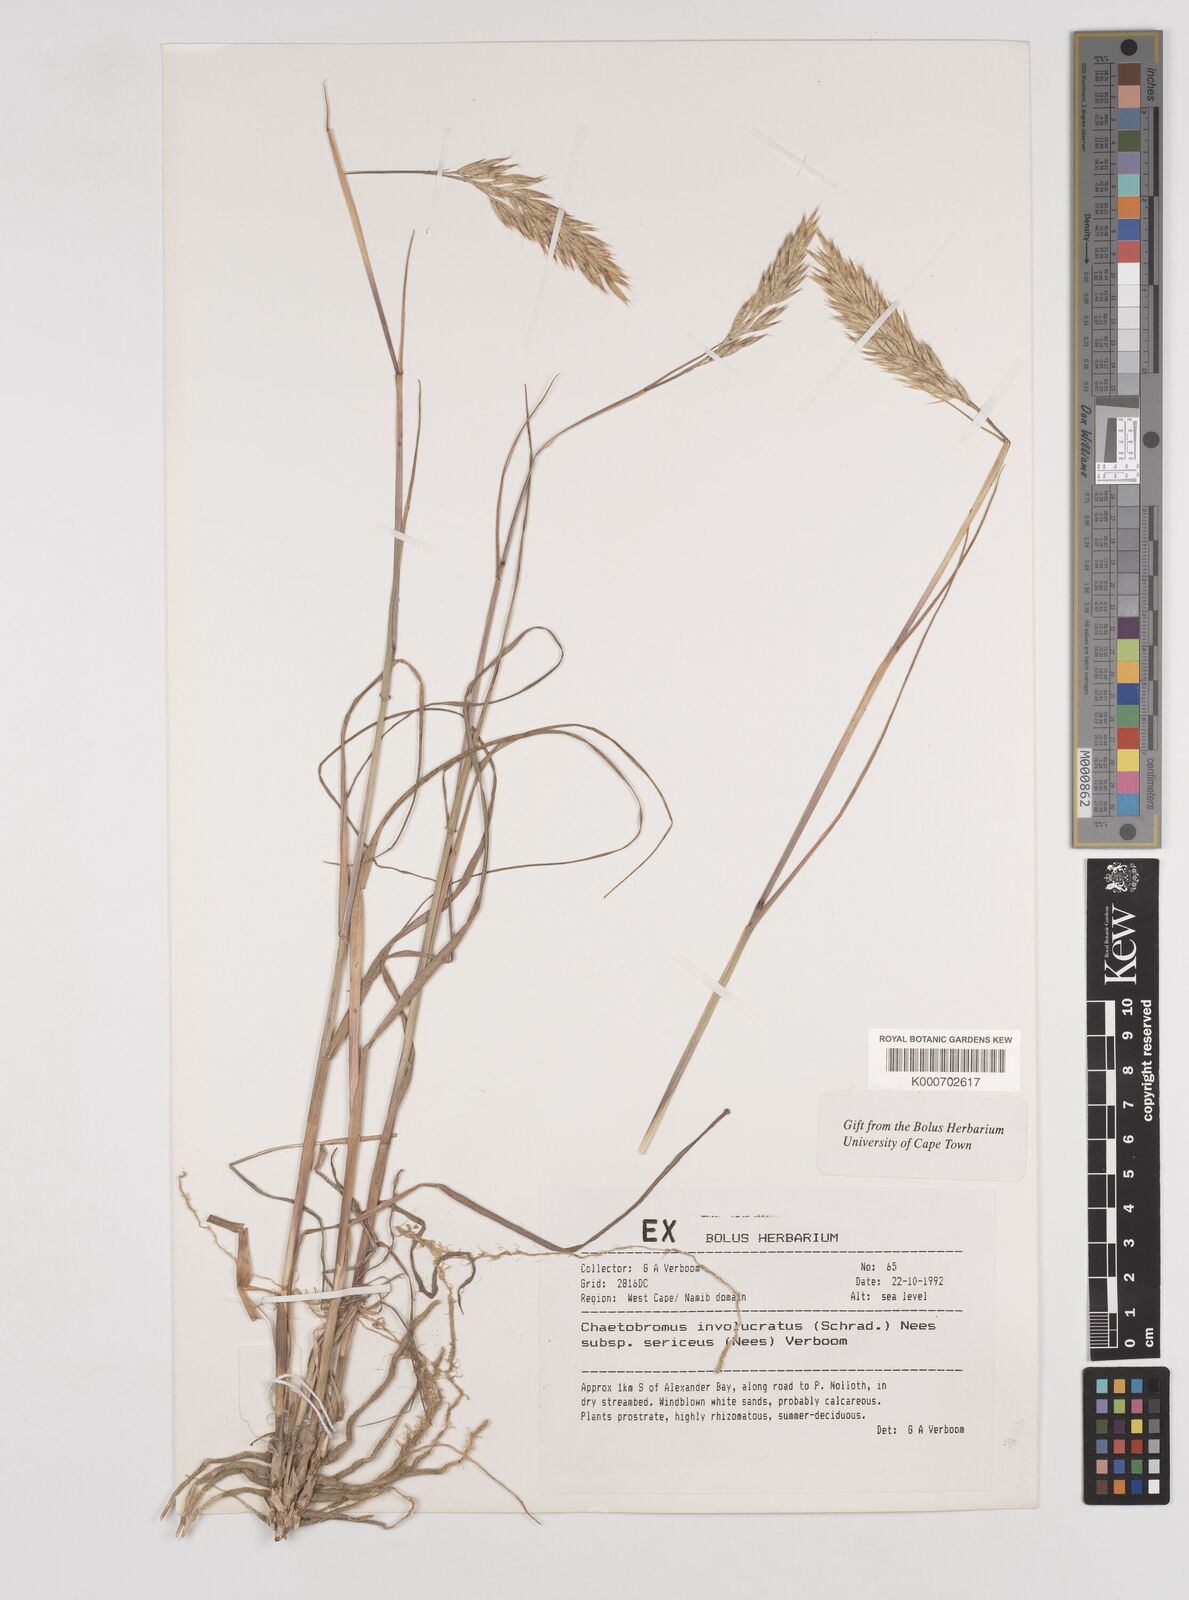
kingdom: Plantae
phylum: Tracheophyta
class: Liliopsida
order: Poales
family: Poaceae
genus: Chaetobromus
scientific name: Chaetobromus involucratus
